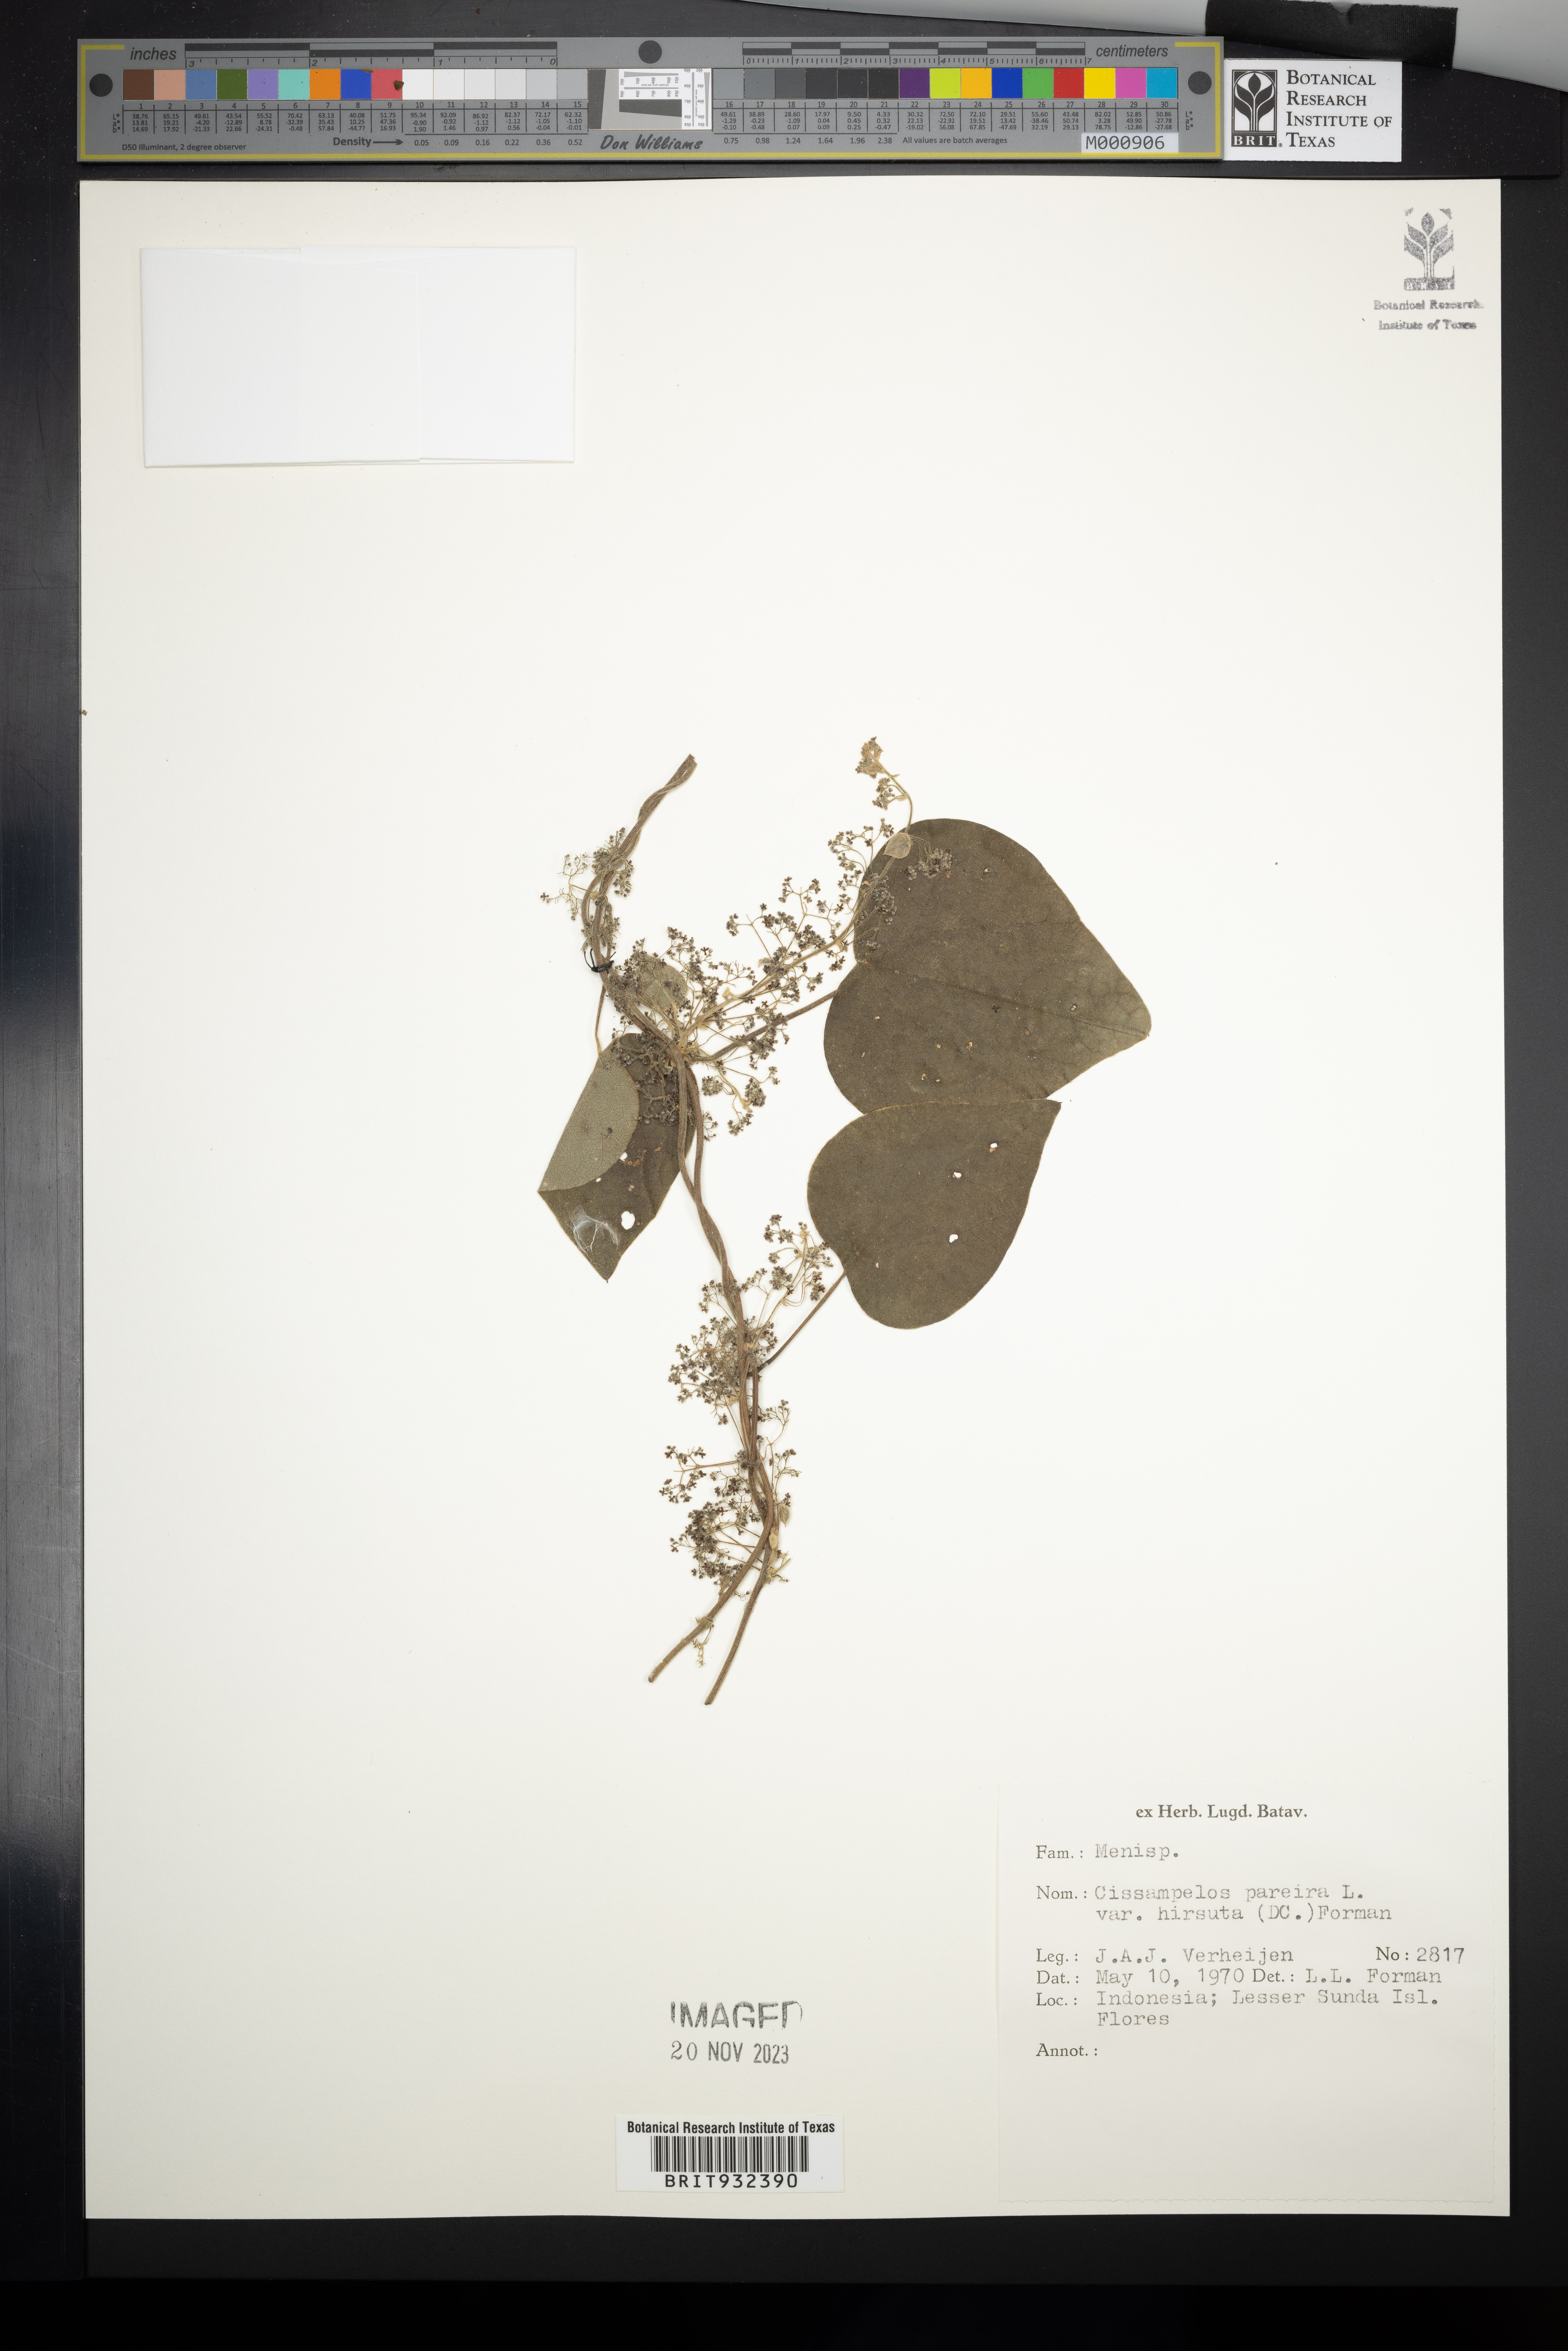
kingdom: Plantae
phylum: Tracheophyta
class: Magnoliopsida
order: Ranunculales
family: Menispermaceae
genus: Cissampelos
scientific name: Cissampelos
